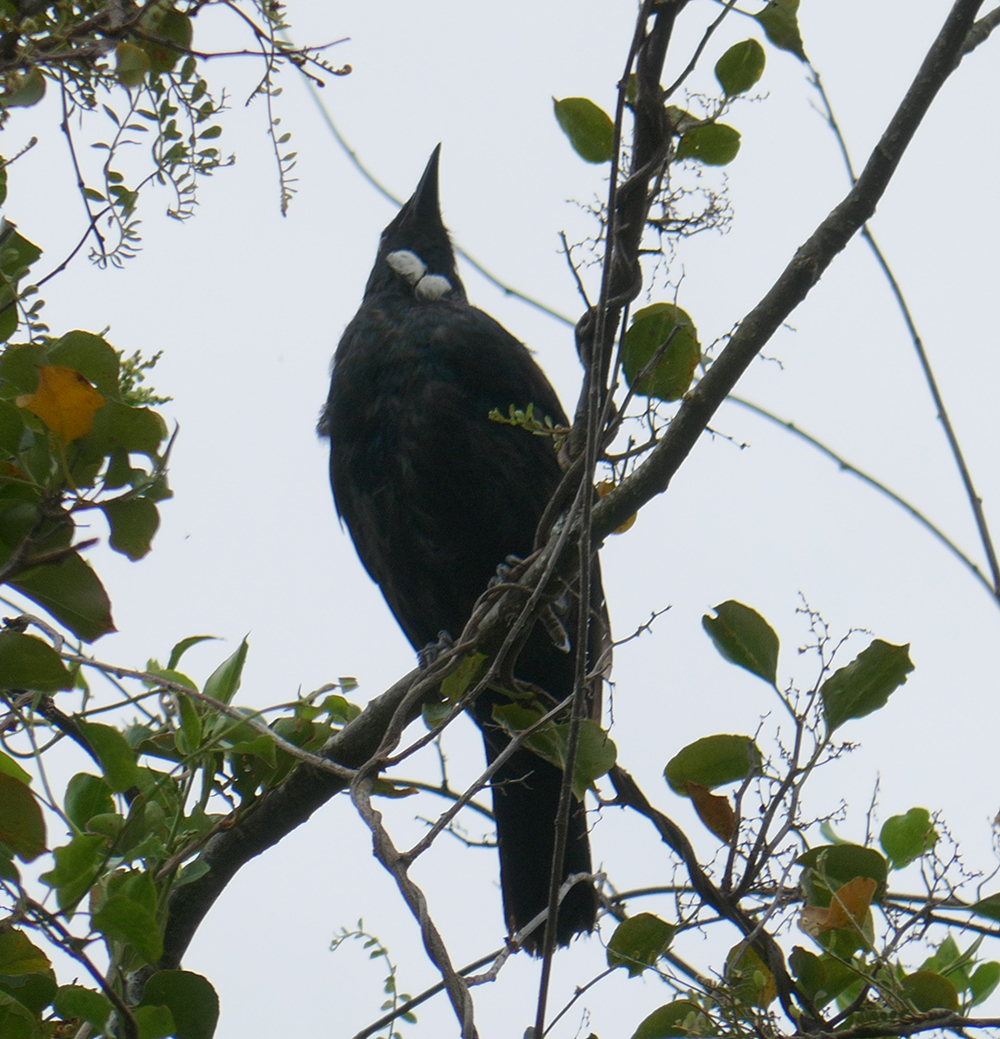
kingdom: Animalia
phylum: Chordata
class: Aves
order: Passeriformes
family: Meliphagidae
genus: Prosthemadera
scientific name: Prosthemadera novaeseelandiae
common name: Tui
